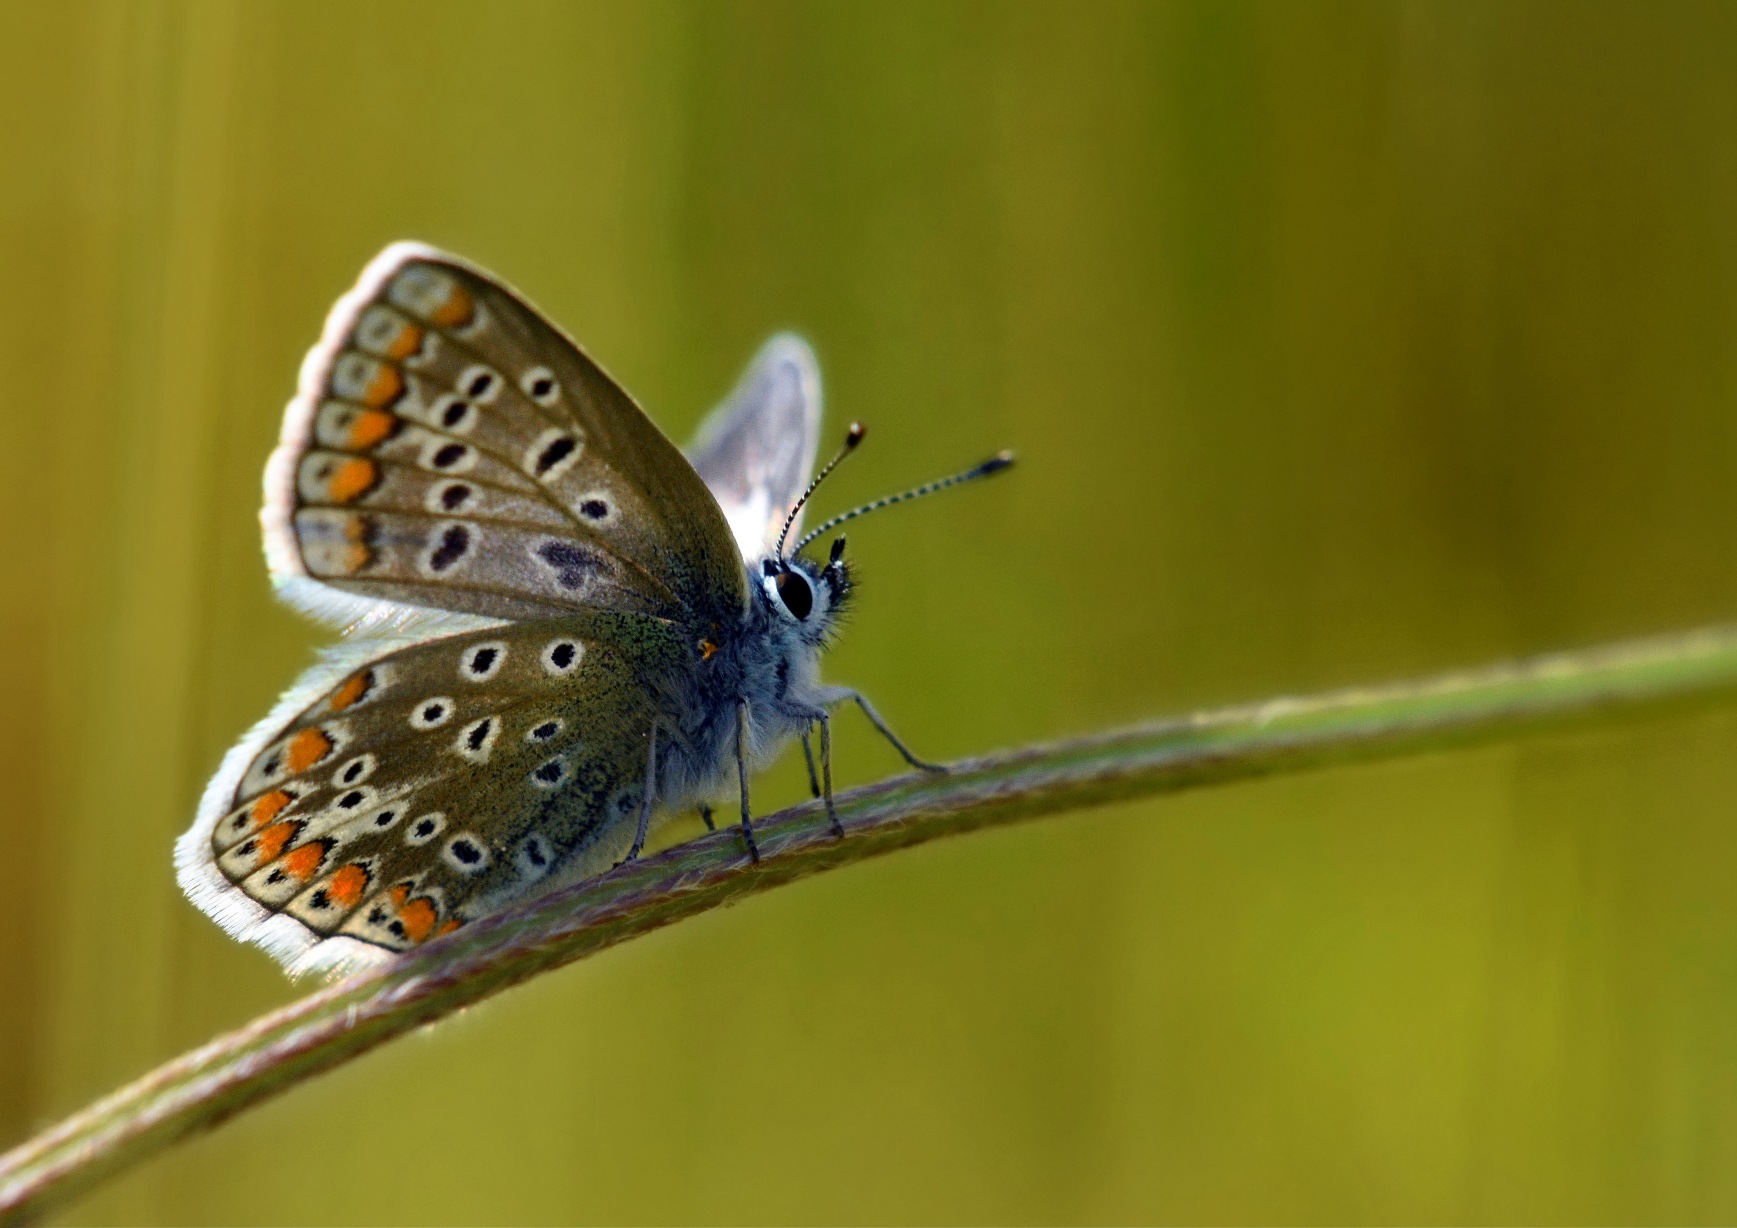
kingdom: Animalia
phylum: Arthropoda
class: Insecta
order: Lepidoptera
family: Lycaenidae
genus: Polyommatus
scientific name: Polyommatus icarus
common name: Almindelig blåfugl
